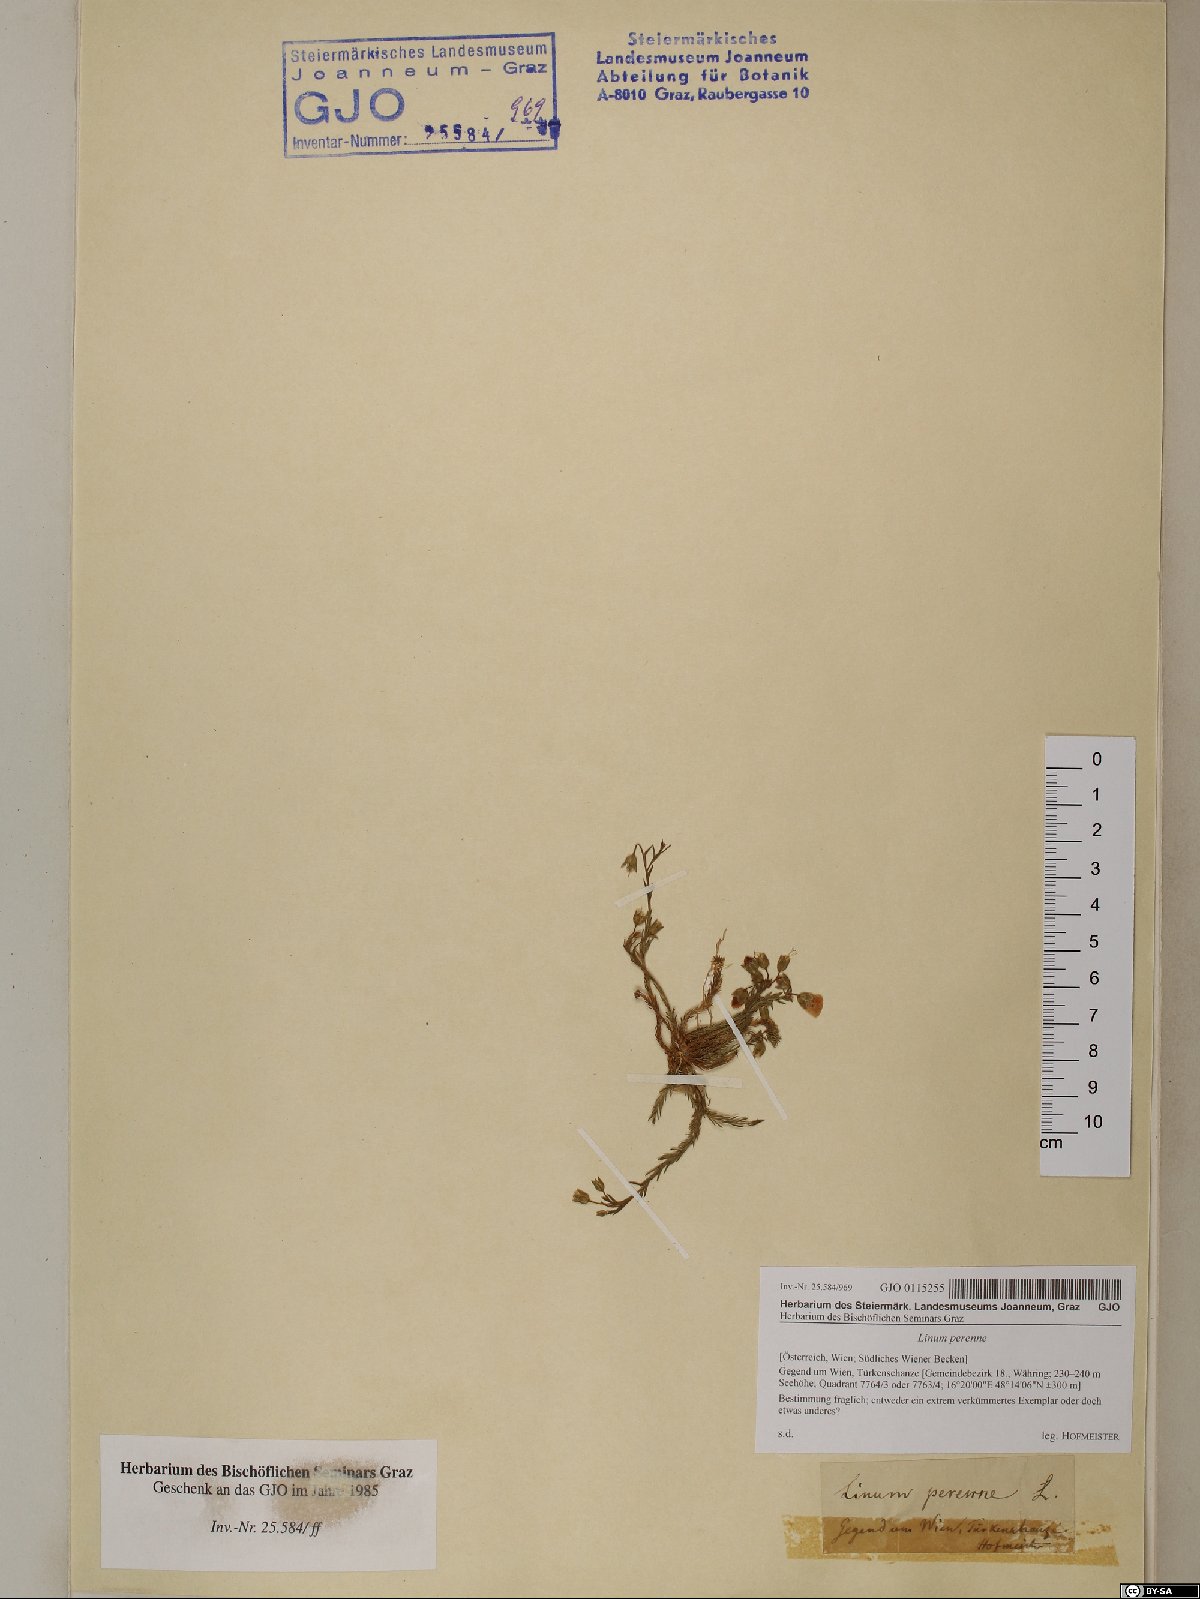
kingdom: Plantae
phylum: Tracheophyta
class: Magnoliopsida
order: Malpighiales
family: Linaceae
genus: Linum
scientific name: Linum perenne
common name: Blue flax
